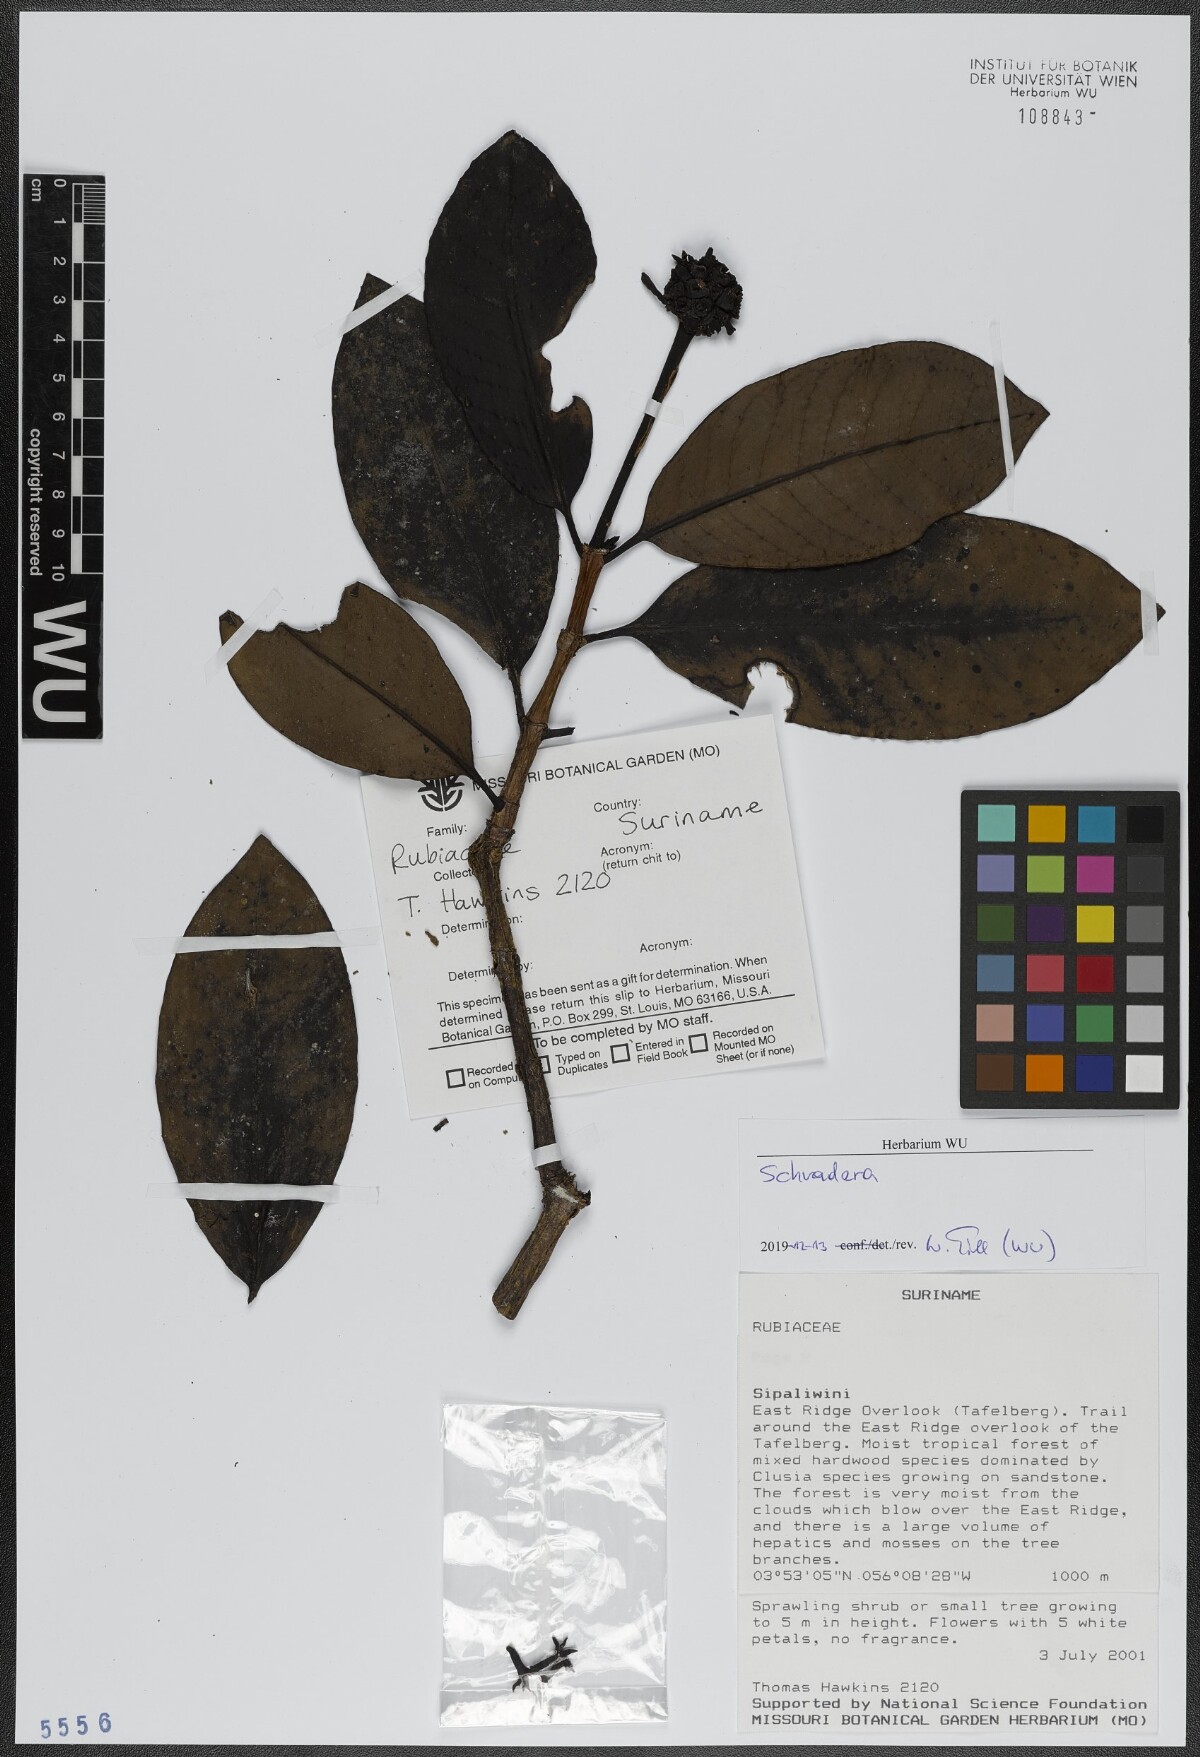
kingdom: Plantae
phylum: Tracheophyta
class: Magnoliopsida
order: Gentianales
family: Rubiaceae
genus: Schradera
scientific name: Schradera
